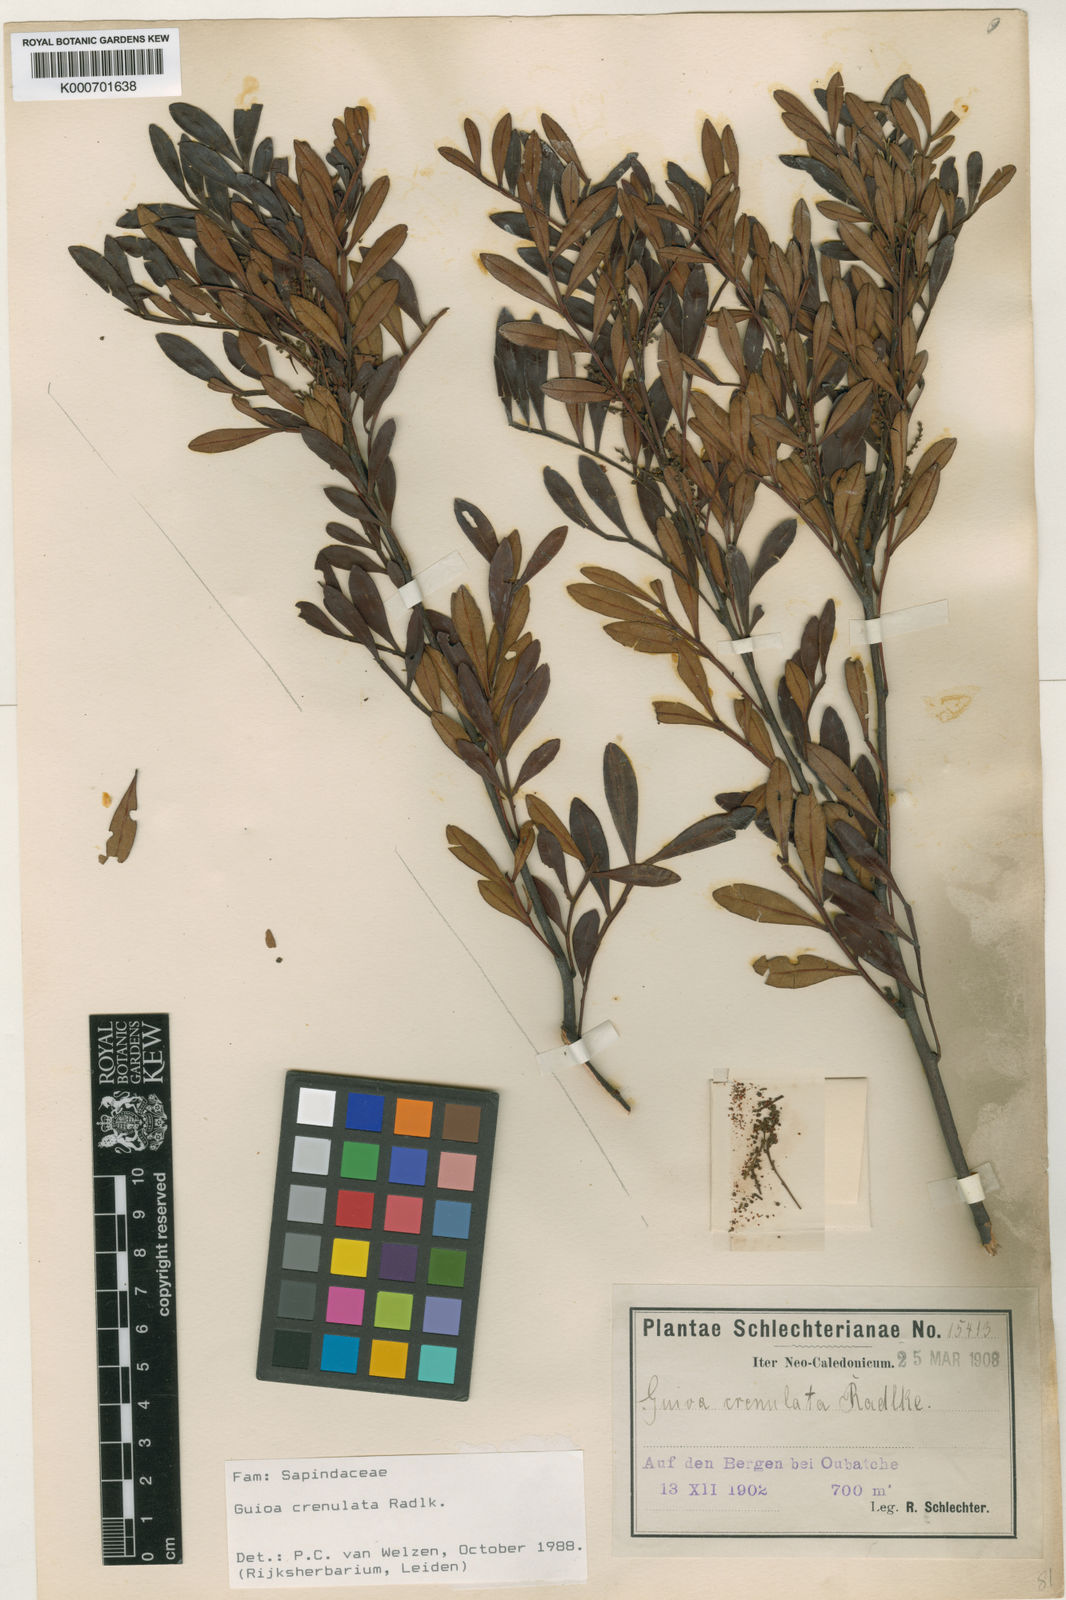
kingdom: Plantae
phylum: Tracheophyta
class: Magnoliopsida
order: Sapindales
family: Sapindaceae
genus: Guioa
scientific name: Guioa crenulata
